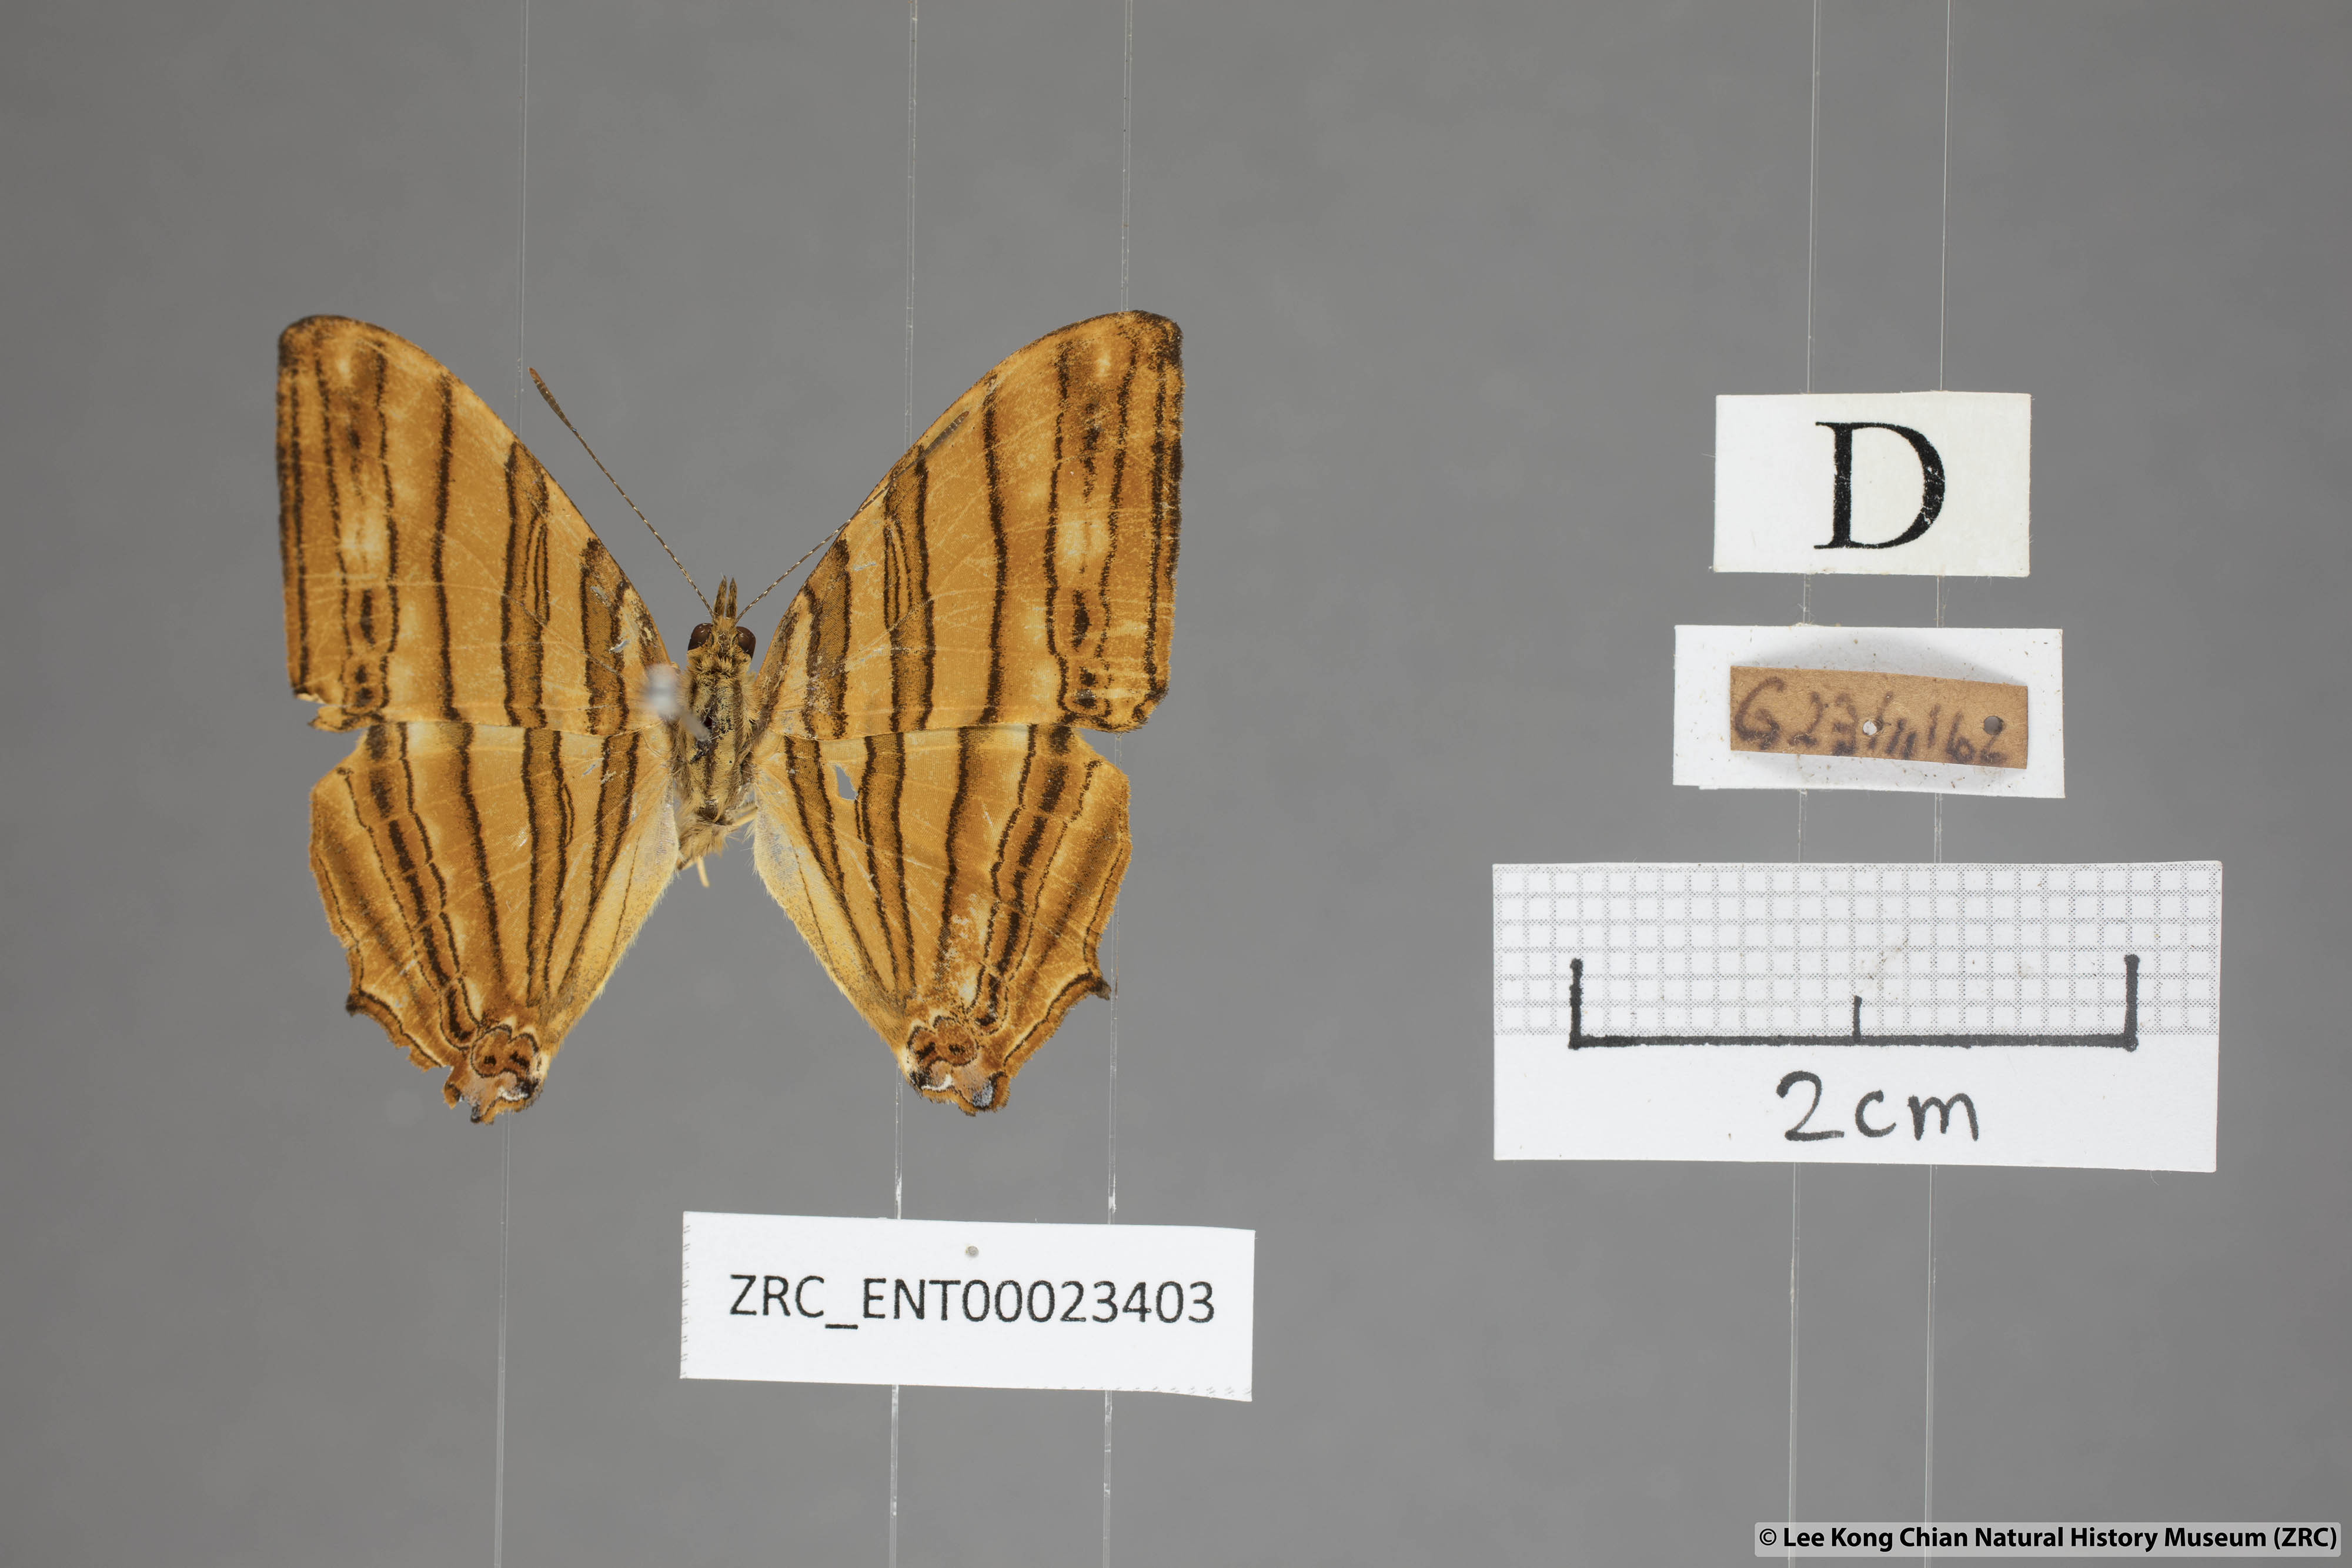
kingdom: Animalia
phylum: Arthropoda
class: Insecta
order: Lepidoptera
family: Nymphalidae
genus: Chersonesia
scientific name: Chersonesia risa
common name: Common maplet
